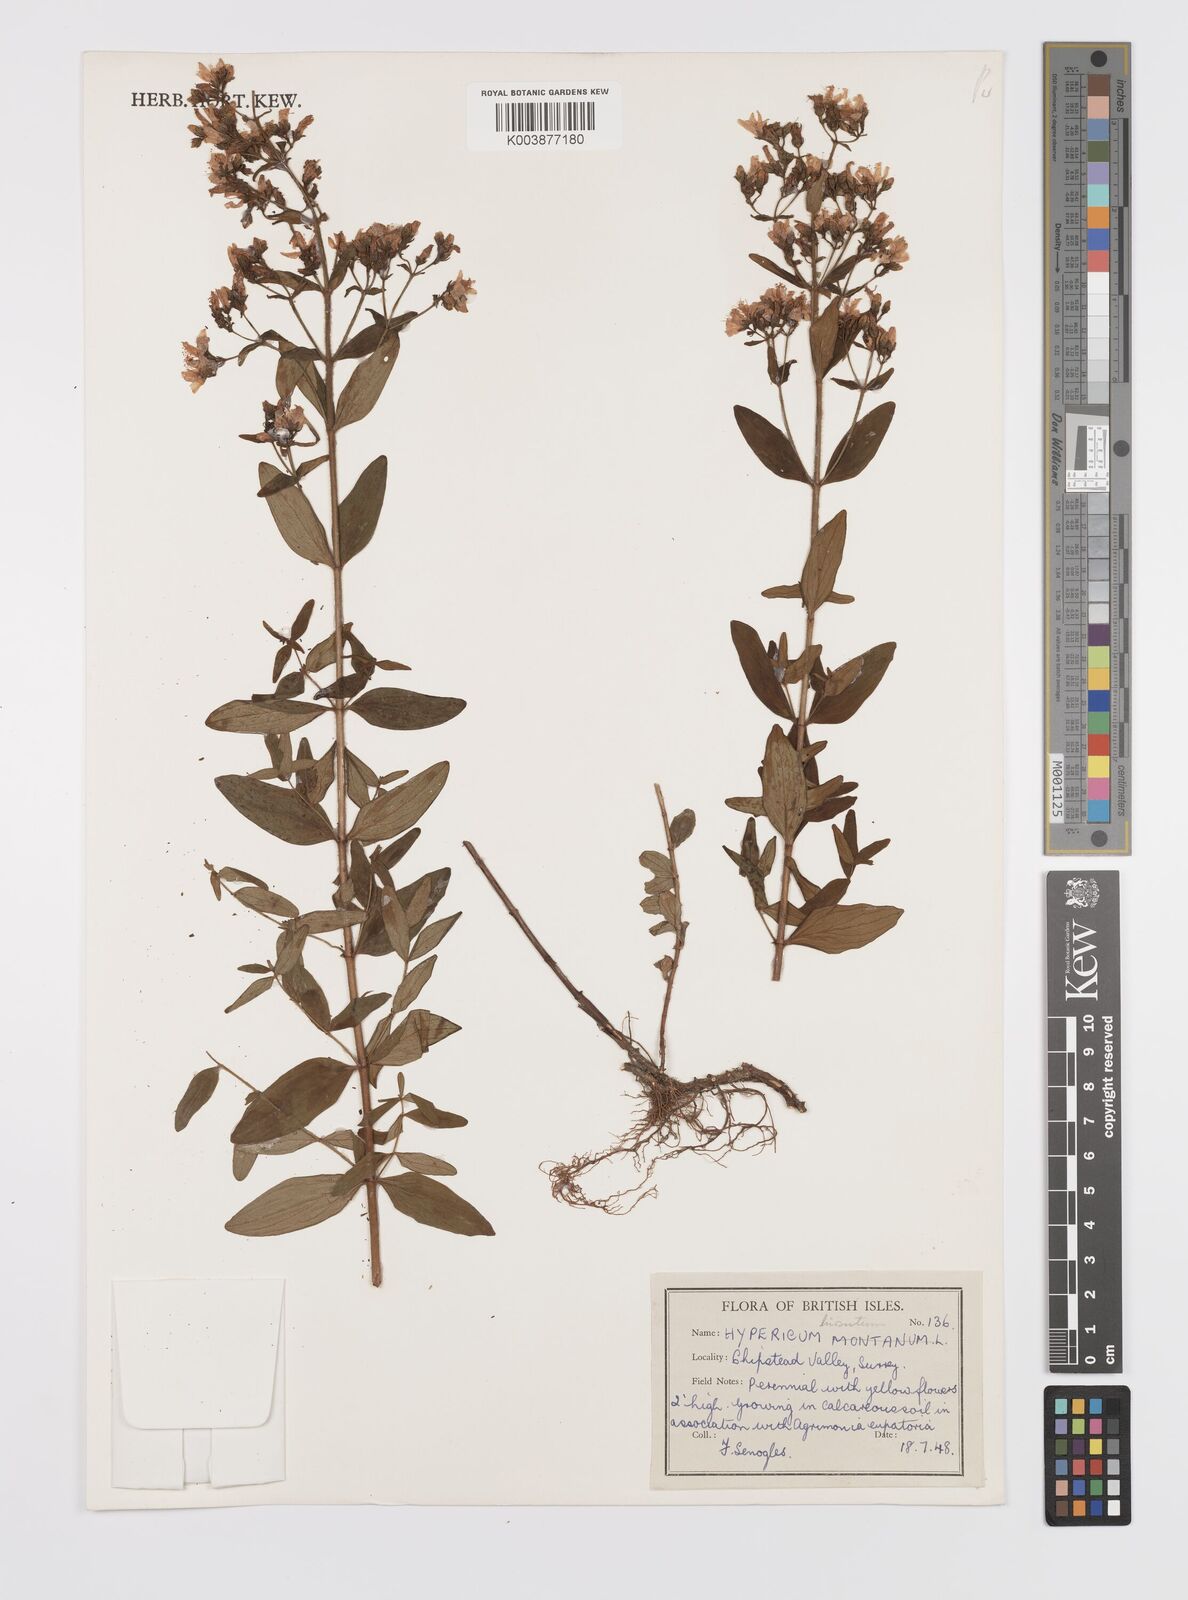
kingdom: Plantae
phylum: Tracheophyta
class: Magnoliopsida
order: Malpighiales
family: Hypericaceae
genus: Hypericum
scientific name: Hypericum hirsutum
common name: Hairy st. john's-wort
